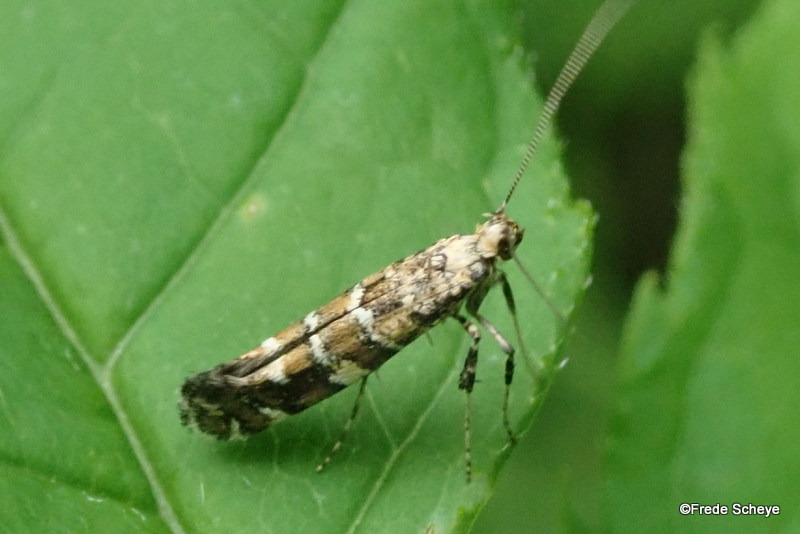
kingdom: Animalia
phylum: Arthropoda
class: Insecta
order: Lepidoptera
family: Gracillariidae
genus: Gracillaria
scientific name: Gracillaria syringella
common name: Syrenmøl
